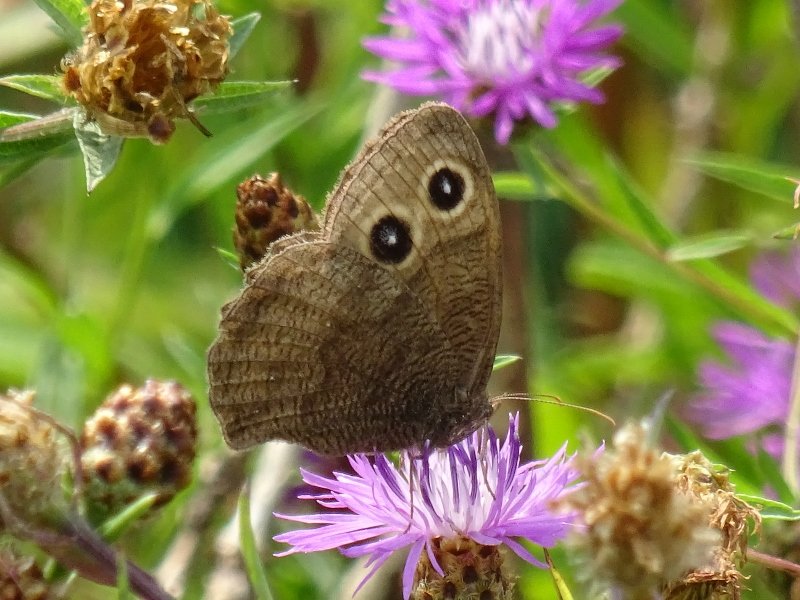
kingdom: Animalia
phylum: Arthropoda
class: Insecta
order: Lepidoptera
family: Nymphalidae
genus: Cercyonis
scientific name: Cercyonis pegala
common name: Common Wood-Nymph
